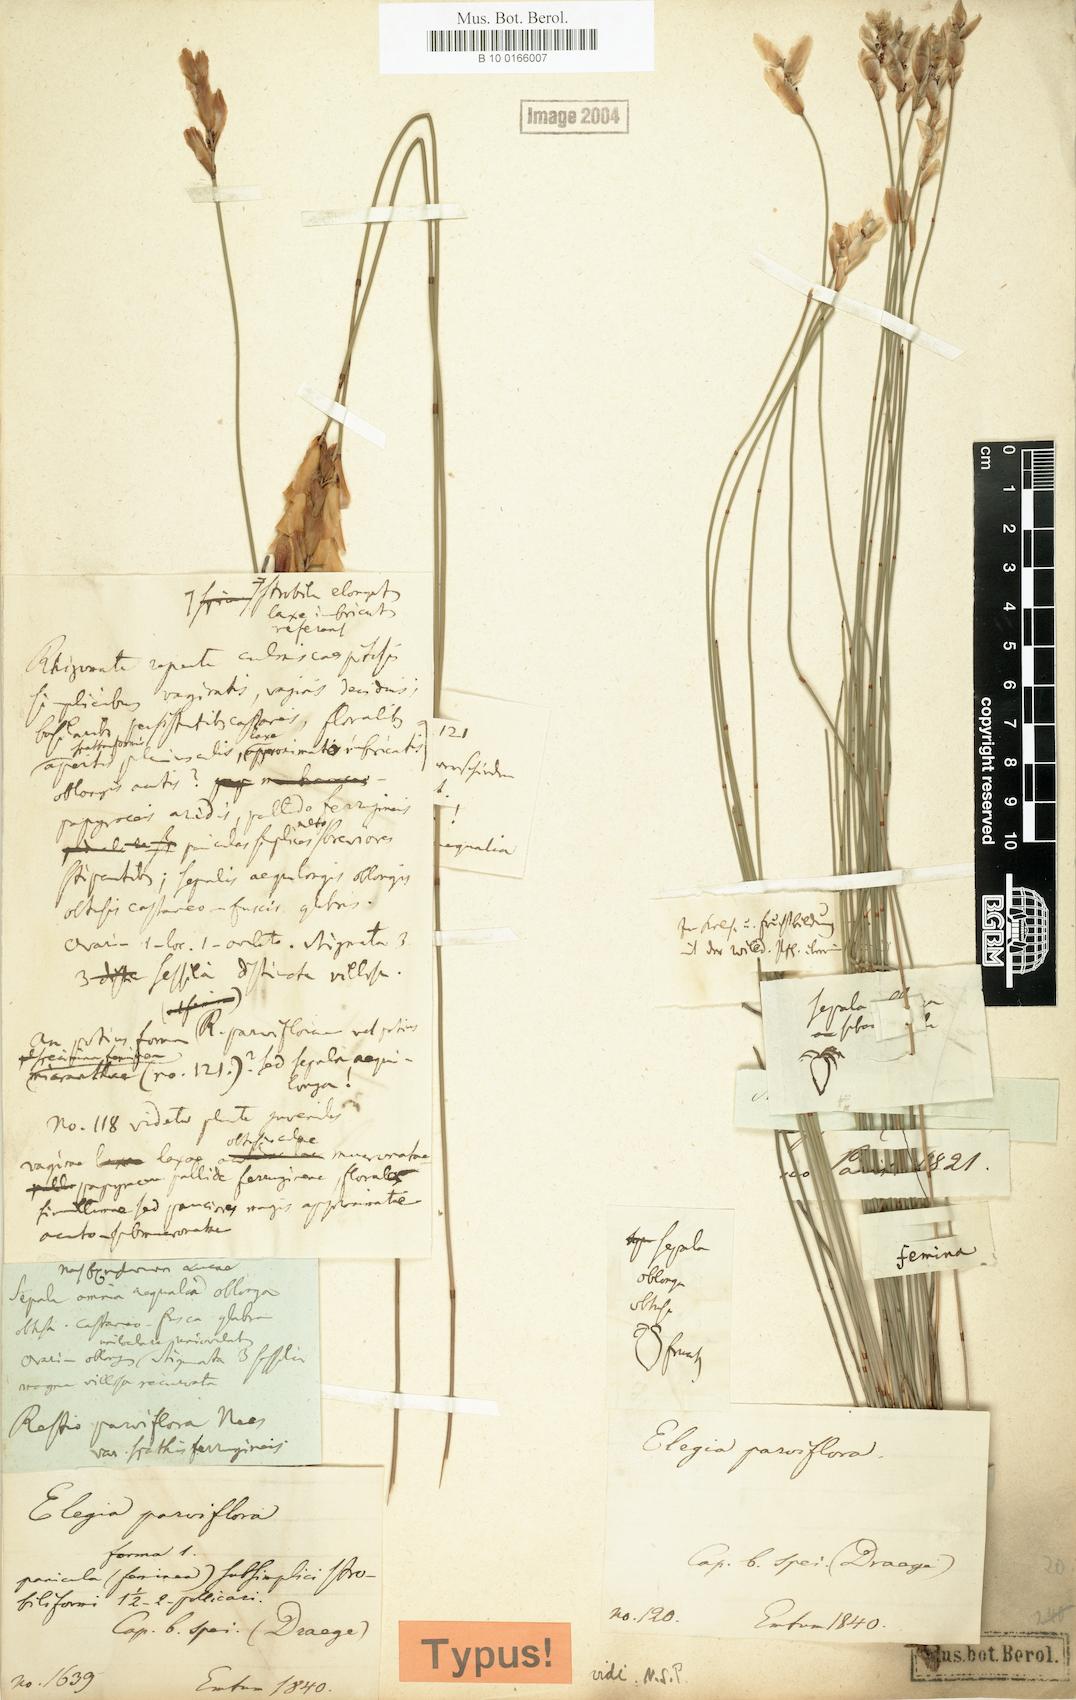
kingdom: Plantae
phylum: Tracheophyta
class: Liliopsida
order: Poales
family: Restionaceae
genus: Cannomois
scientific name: Cannomois parviflora
